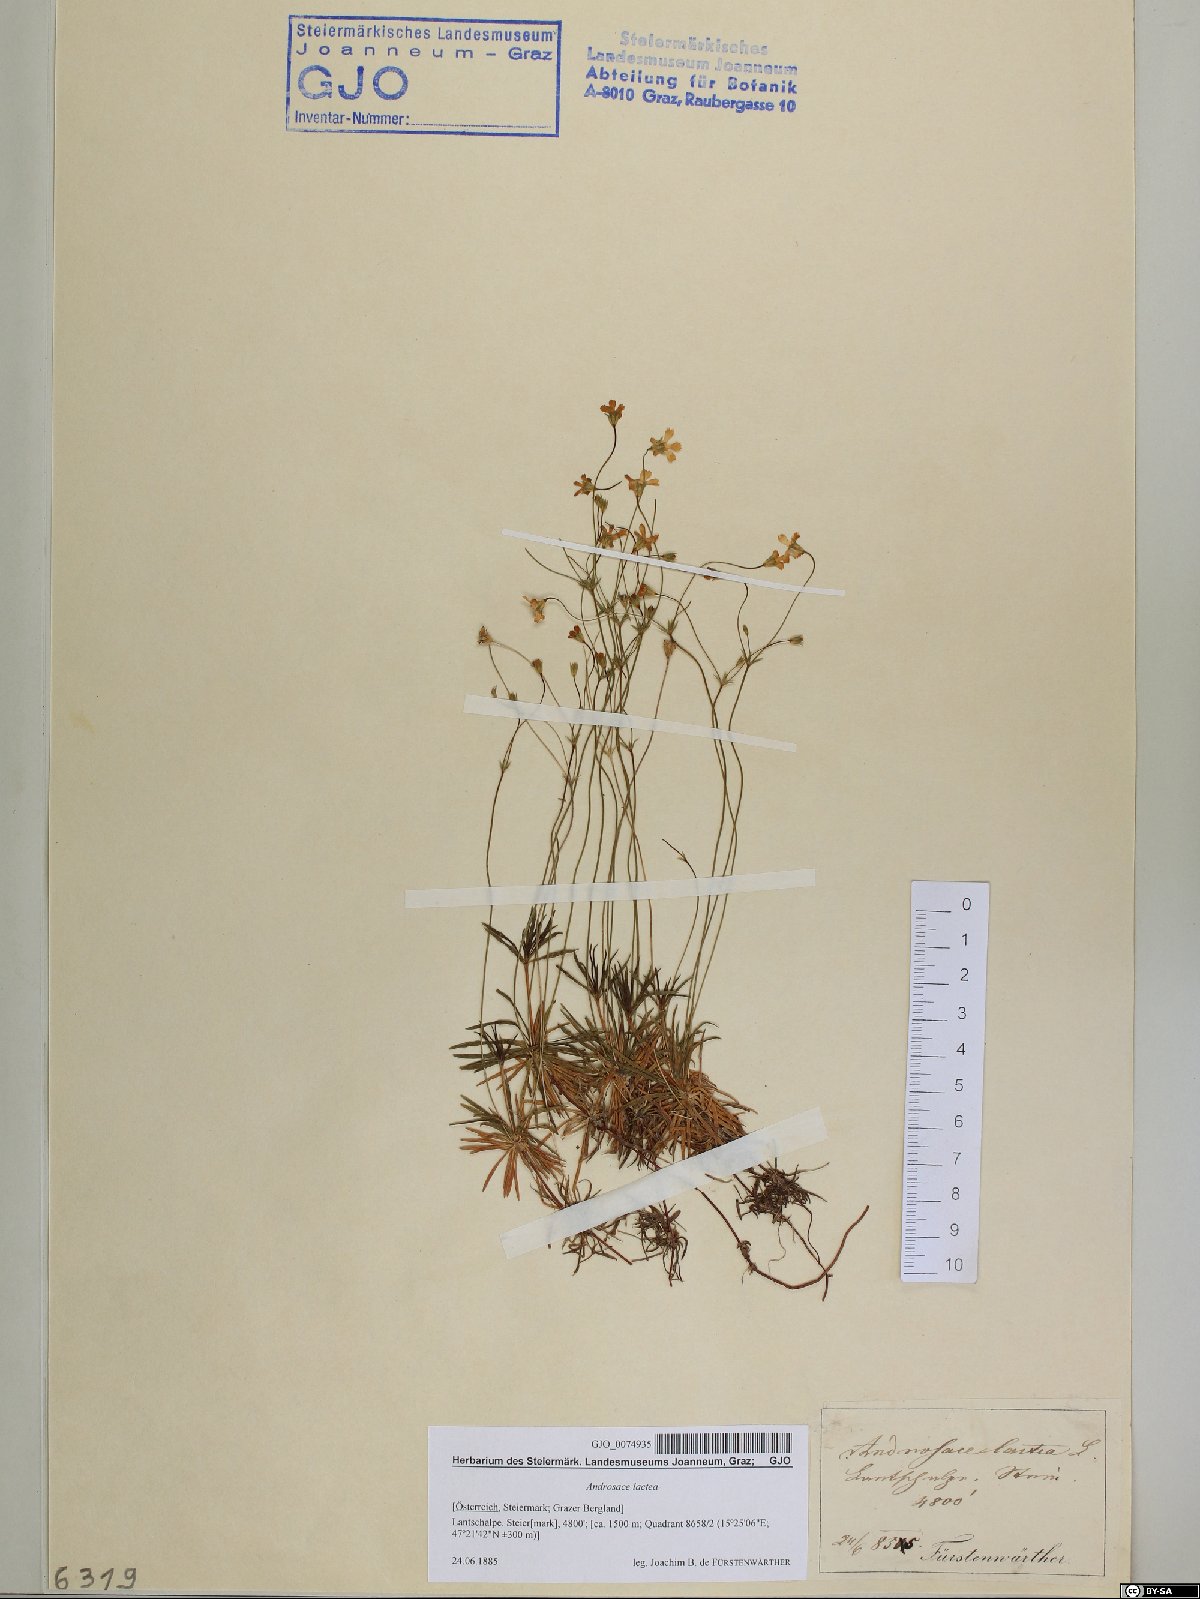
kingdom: Plantae
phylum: Tracheophyta
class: Magnoliopsida
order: Ericales
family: Primulaceae
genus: Androsace
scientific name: Androsace lactea
